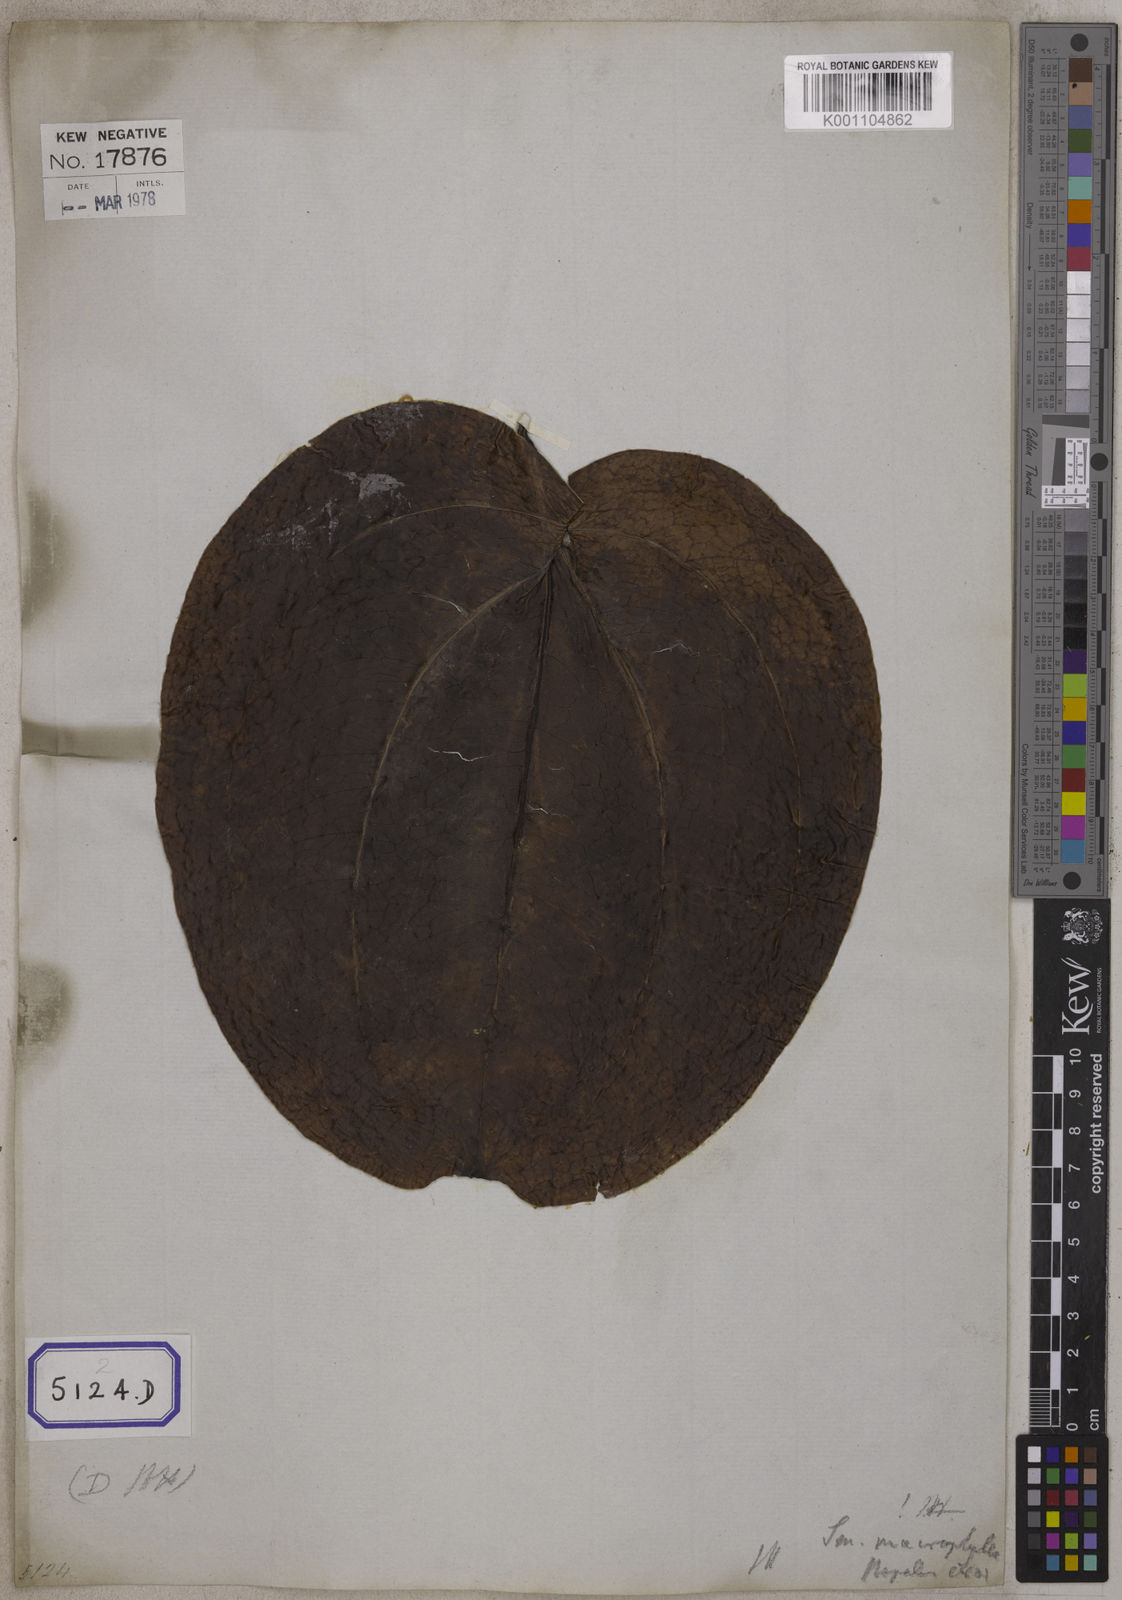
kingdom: Plantae
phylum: Tracheophyta
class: Liliopsida
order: Liliales
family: Smilacaceae
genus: Smilax
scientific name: Smilax prolifera
